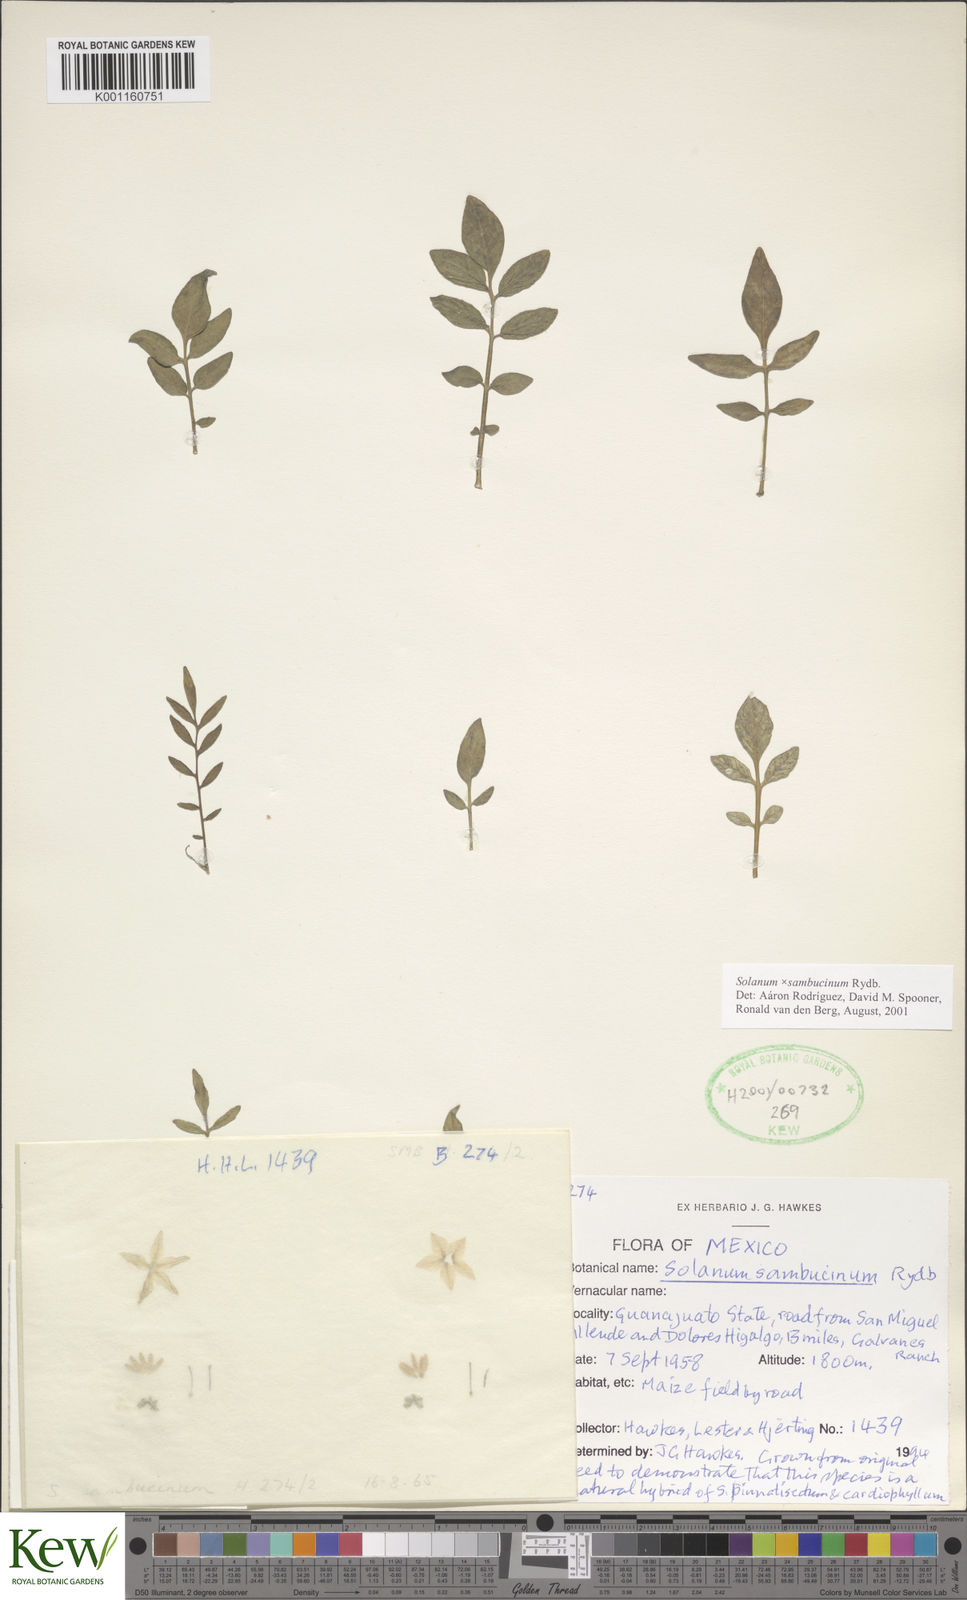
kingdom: Plantae
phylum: Tracheophyta
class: Magnoliopsida
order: Solanales
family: Solanaceae
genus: Solanum
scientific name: Solanum sambucinum
